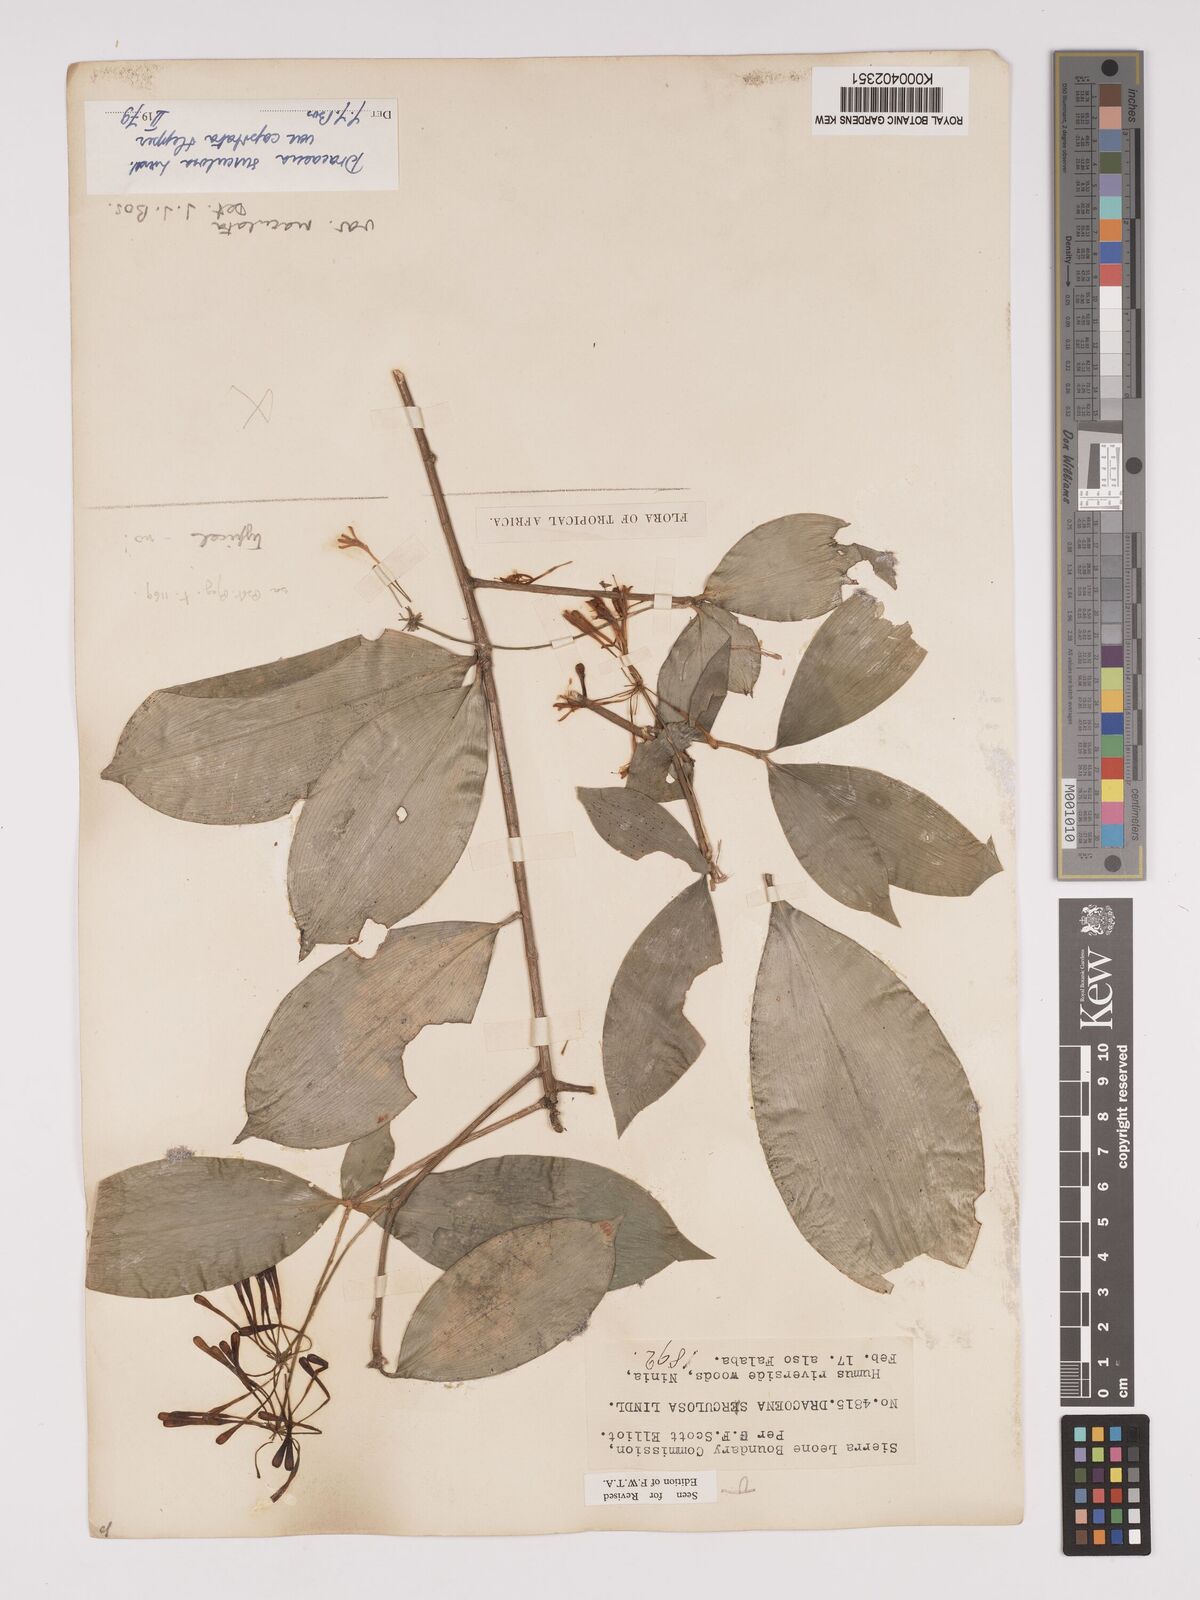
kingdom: Plantae
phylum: Tracheophyta
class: Liliopsida
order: Asparagales
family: Asparagaceae
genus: Dracaena
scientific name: Dracaena surculosa
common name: Spotted dracaena
